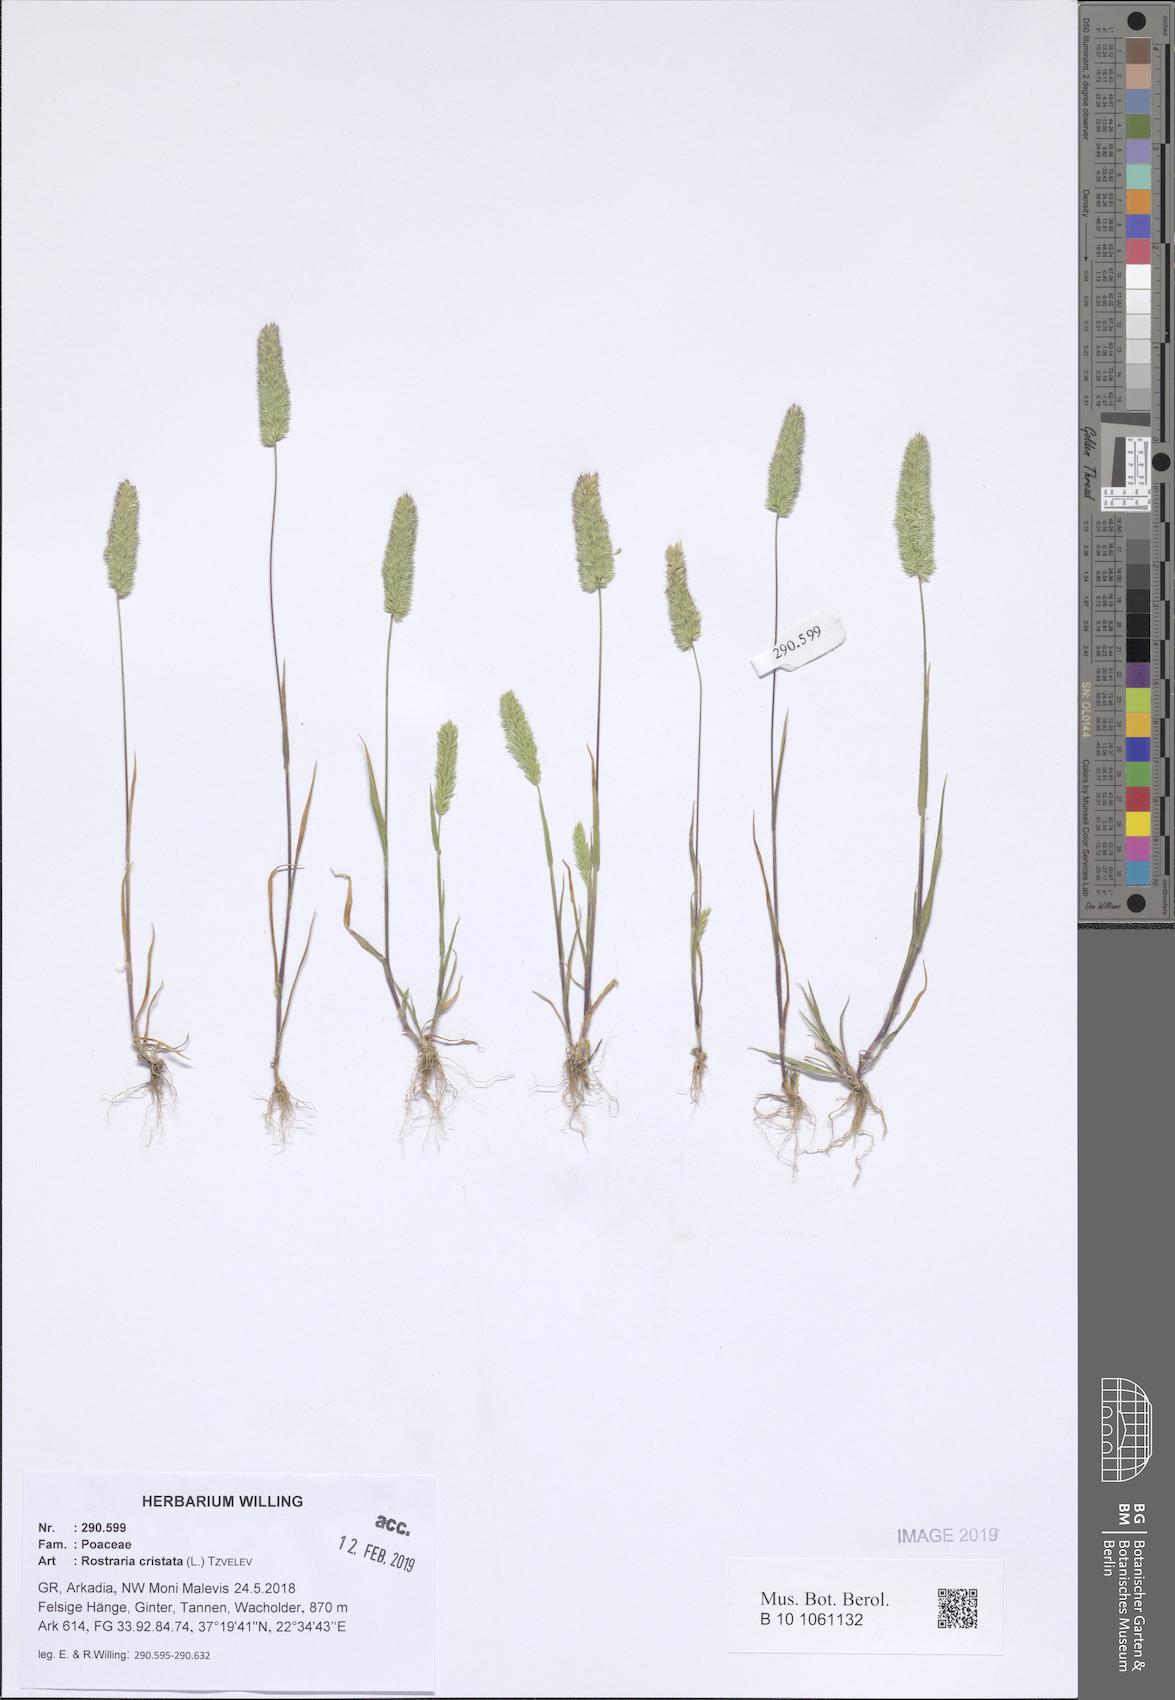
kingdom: Plantae
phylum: Tracheophyta
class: Liliopsida
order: Poales
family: Poaceae
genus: Rostraria
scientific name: Rostraria cristata
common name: Mediterranean hair-grass
